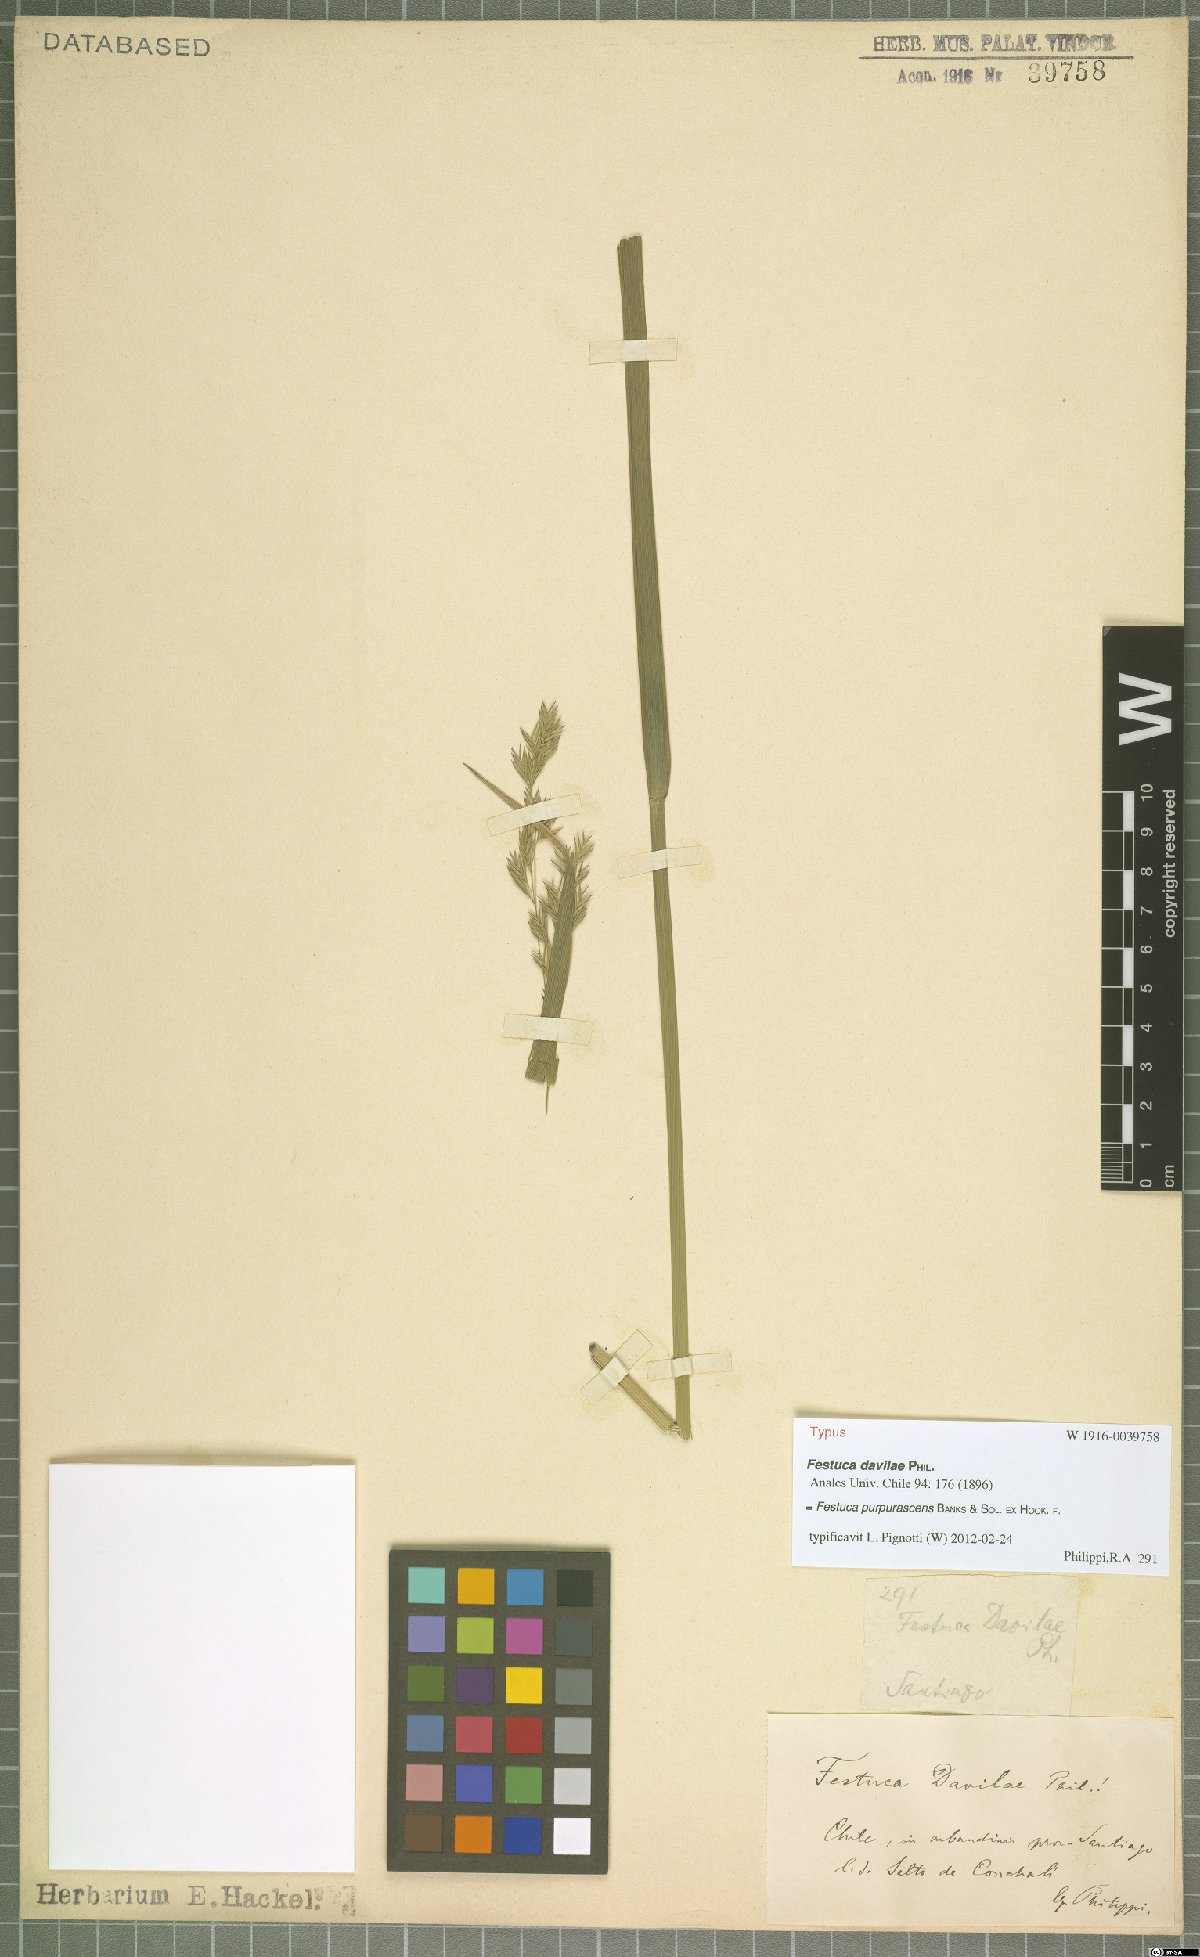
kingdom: Plantae
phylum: Tracheophyta
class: Liliopsida
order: Poales
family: Poaceae
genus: Festuca
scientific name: Festuca purpurascens
